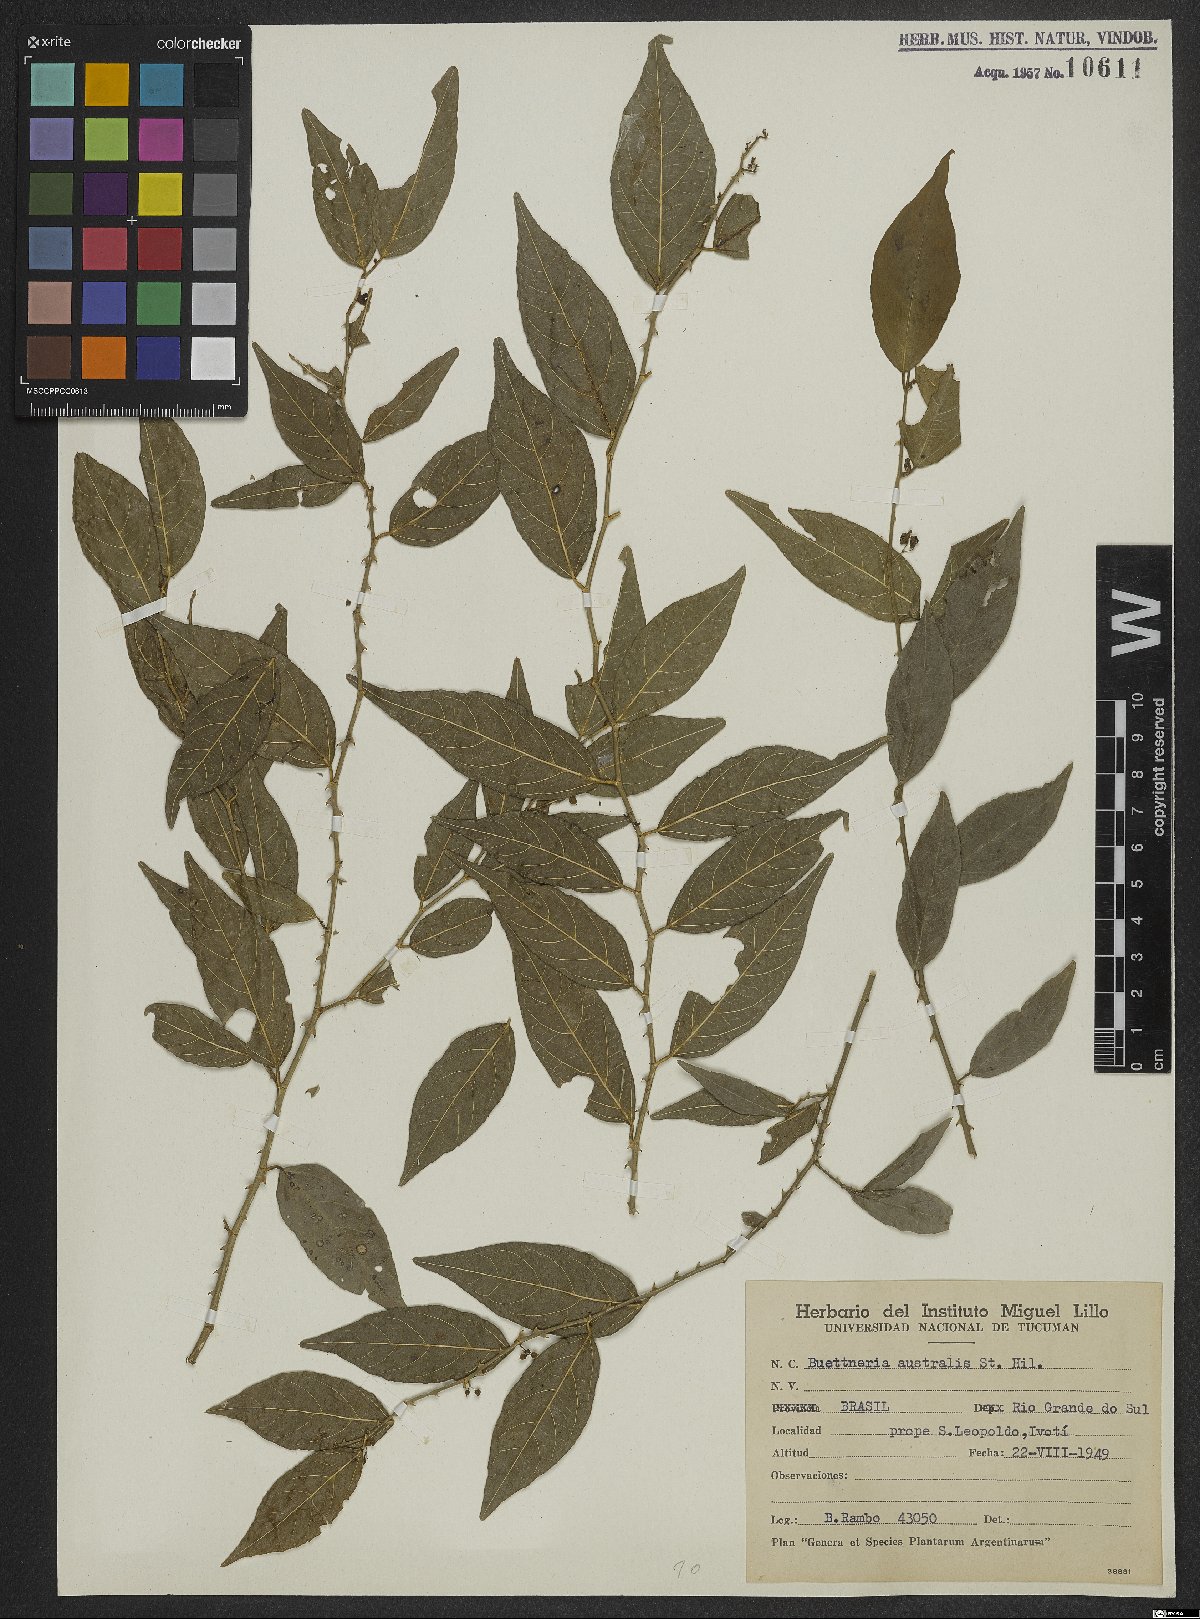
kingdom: Plantae
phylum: Tracheophyta
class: Magnoliopsida
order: Malvales
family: Malvaceae
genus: Byttneria
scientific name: Byttneria australis
